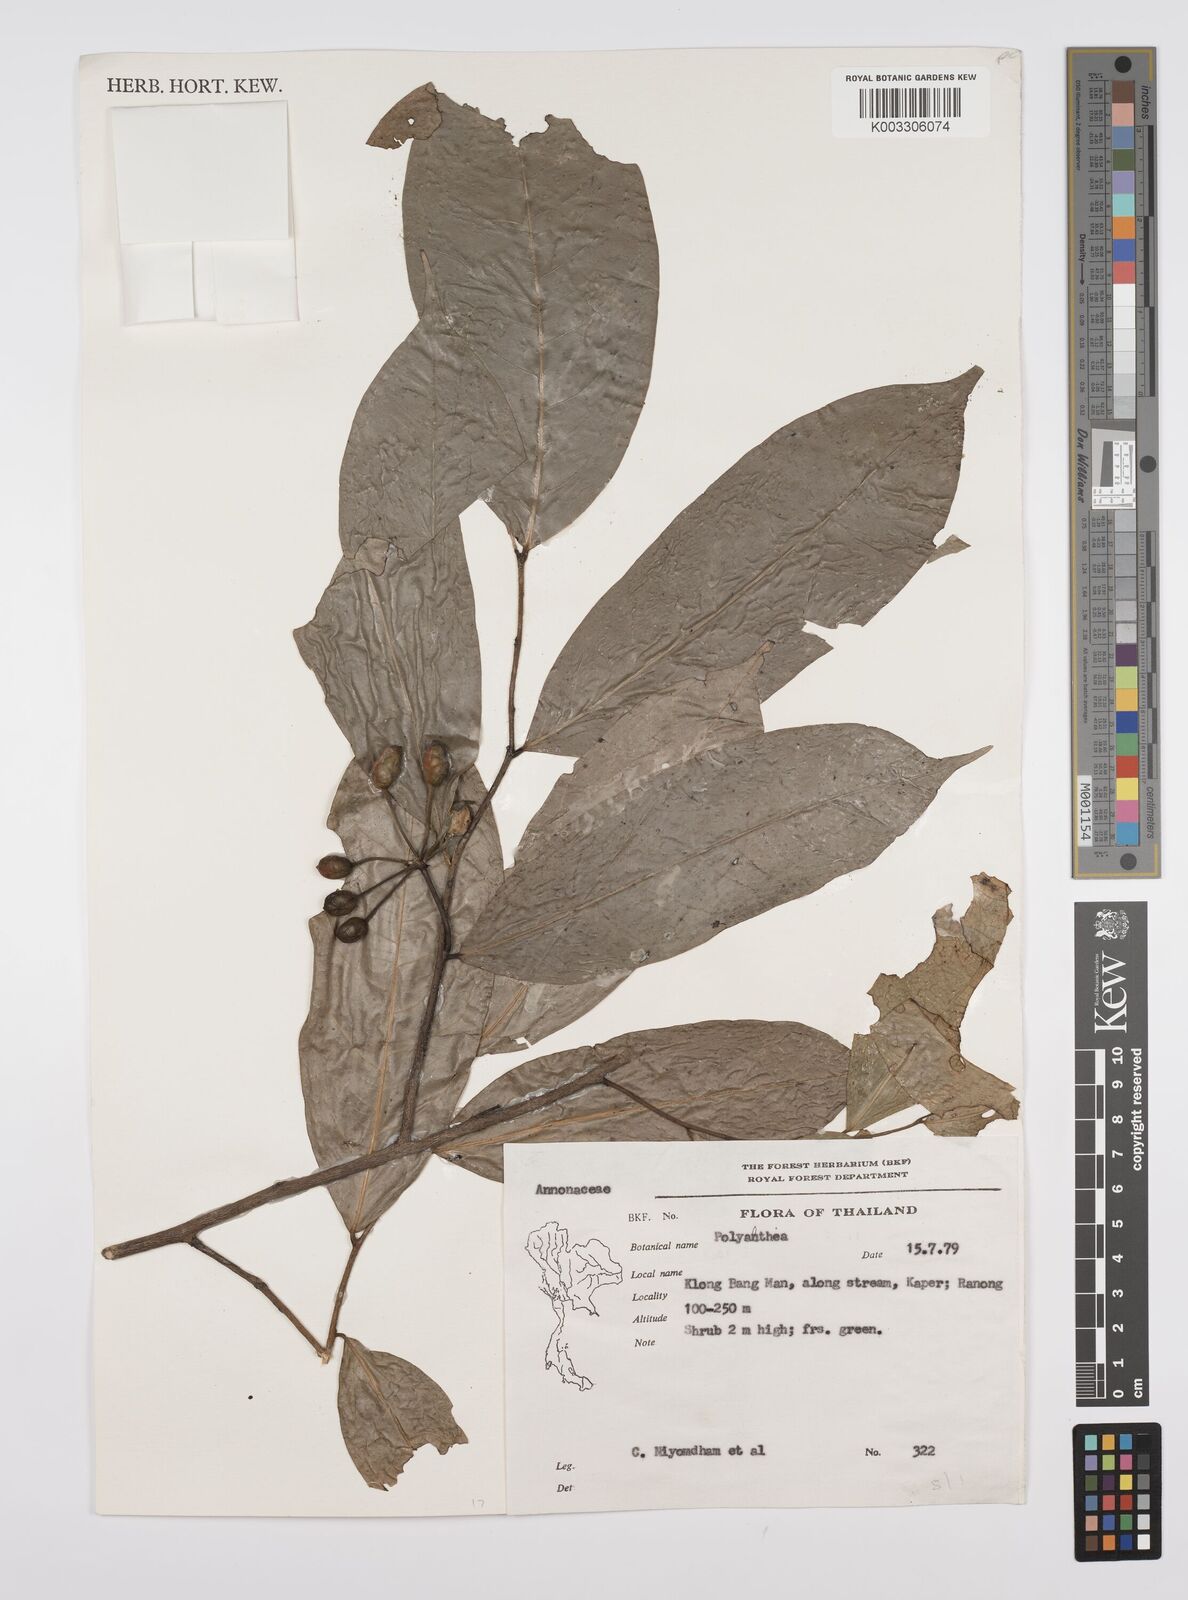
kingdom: Plantae
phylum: Tracheophyta
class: Magnoliopsida
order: Magnoliales
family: Annonaceae
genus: Huberantha
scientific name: Huberantha
